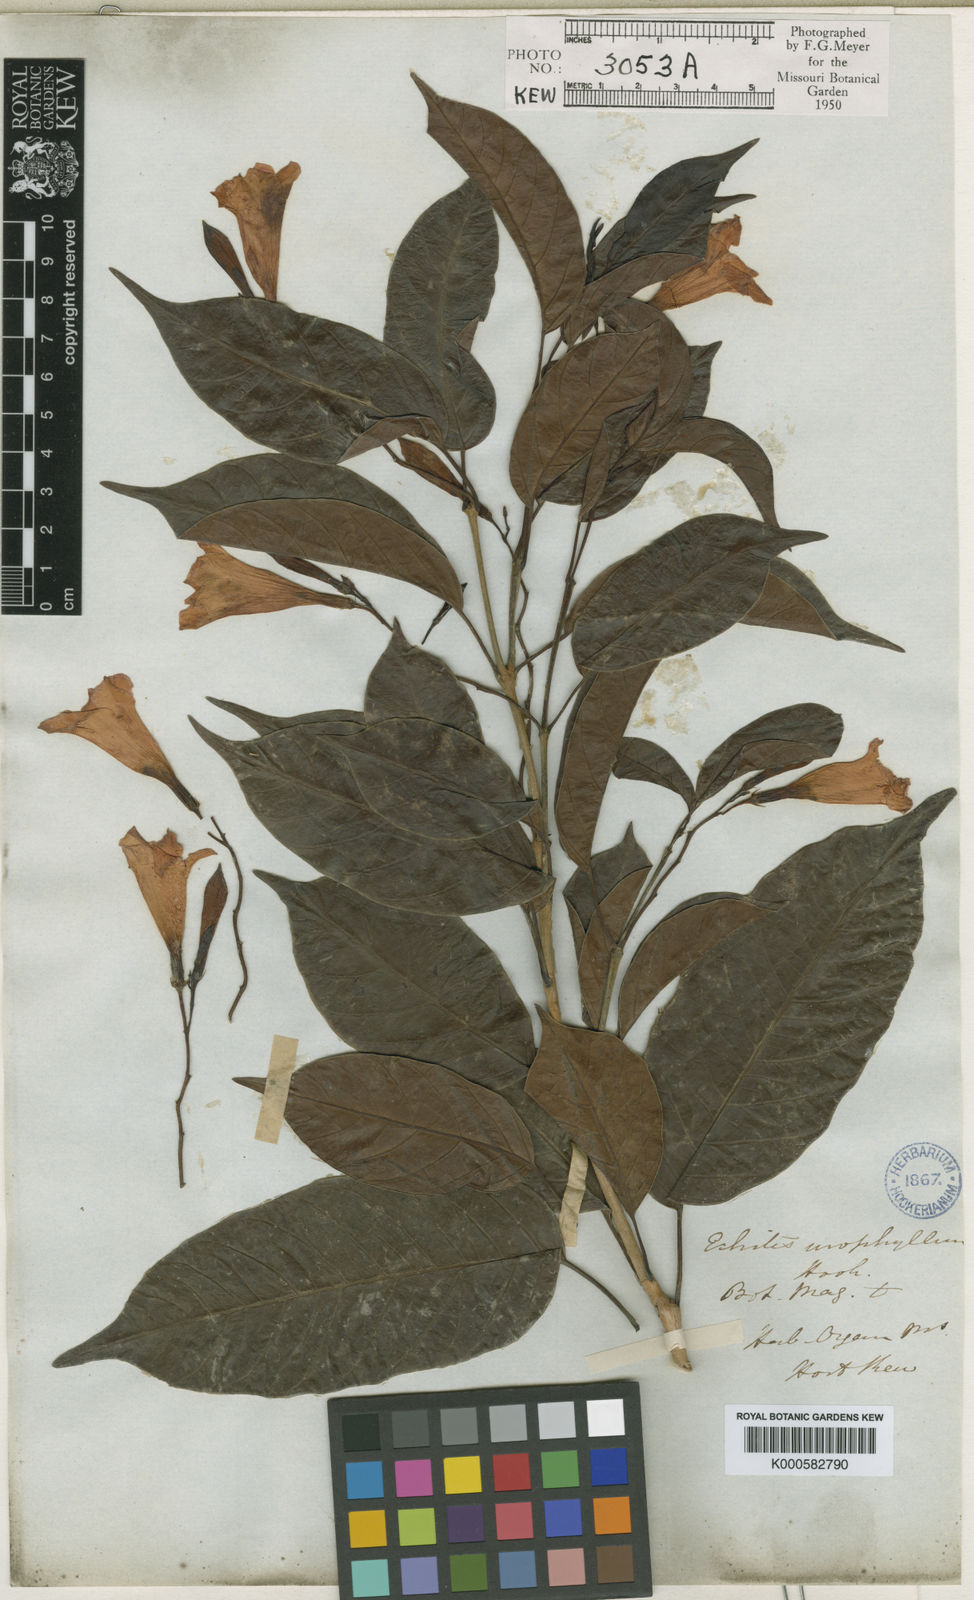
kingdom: Plantae
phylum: Tracheophyta
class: Magnoliopsida
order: Gentianales
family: Apocynaceae
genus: Mandevilla
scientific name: Mandevilla urophylla
